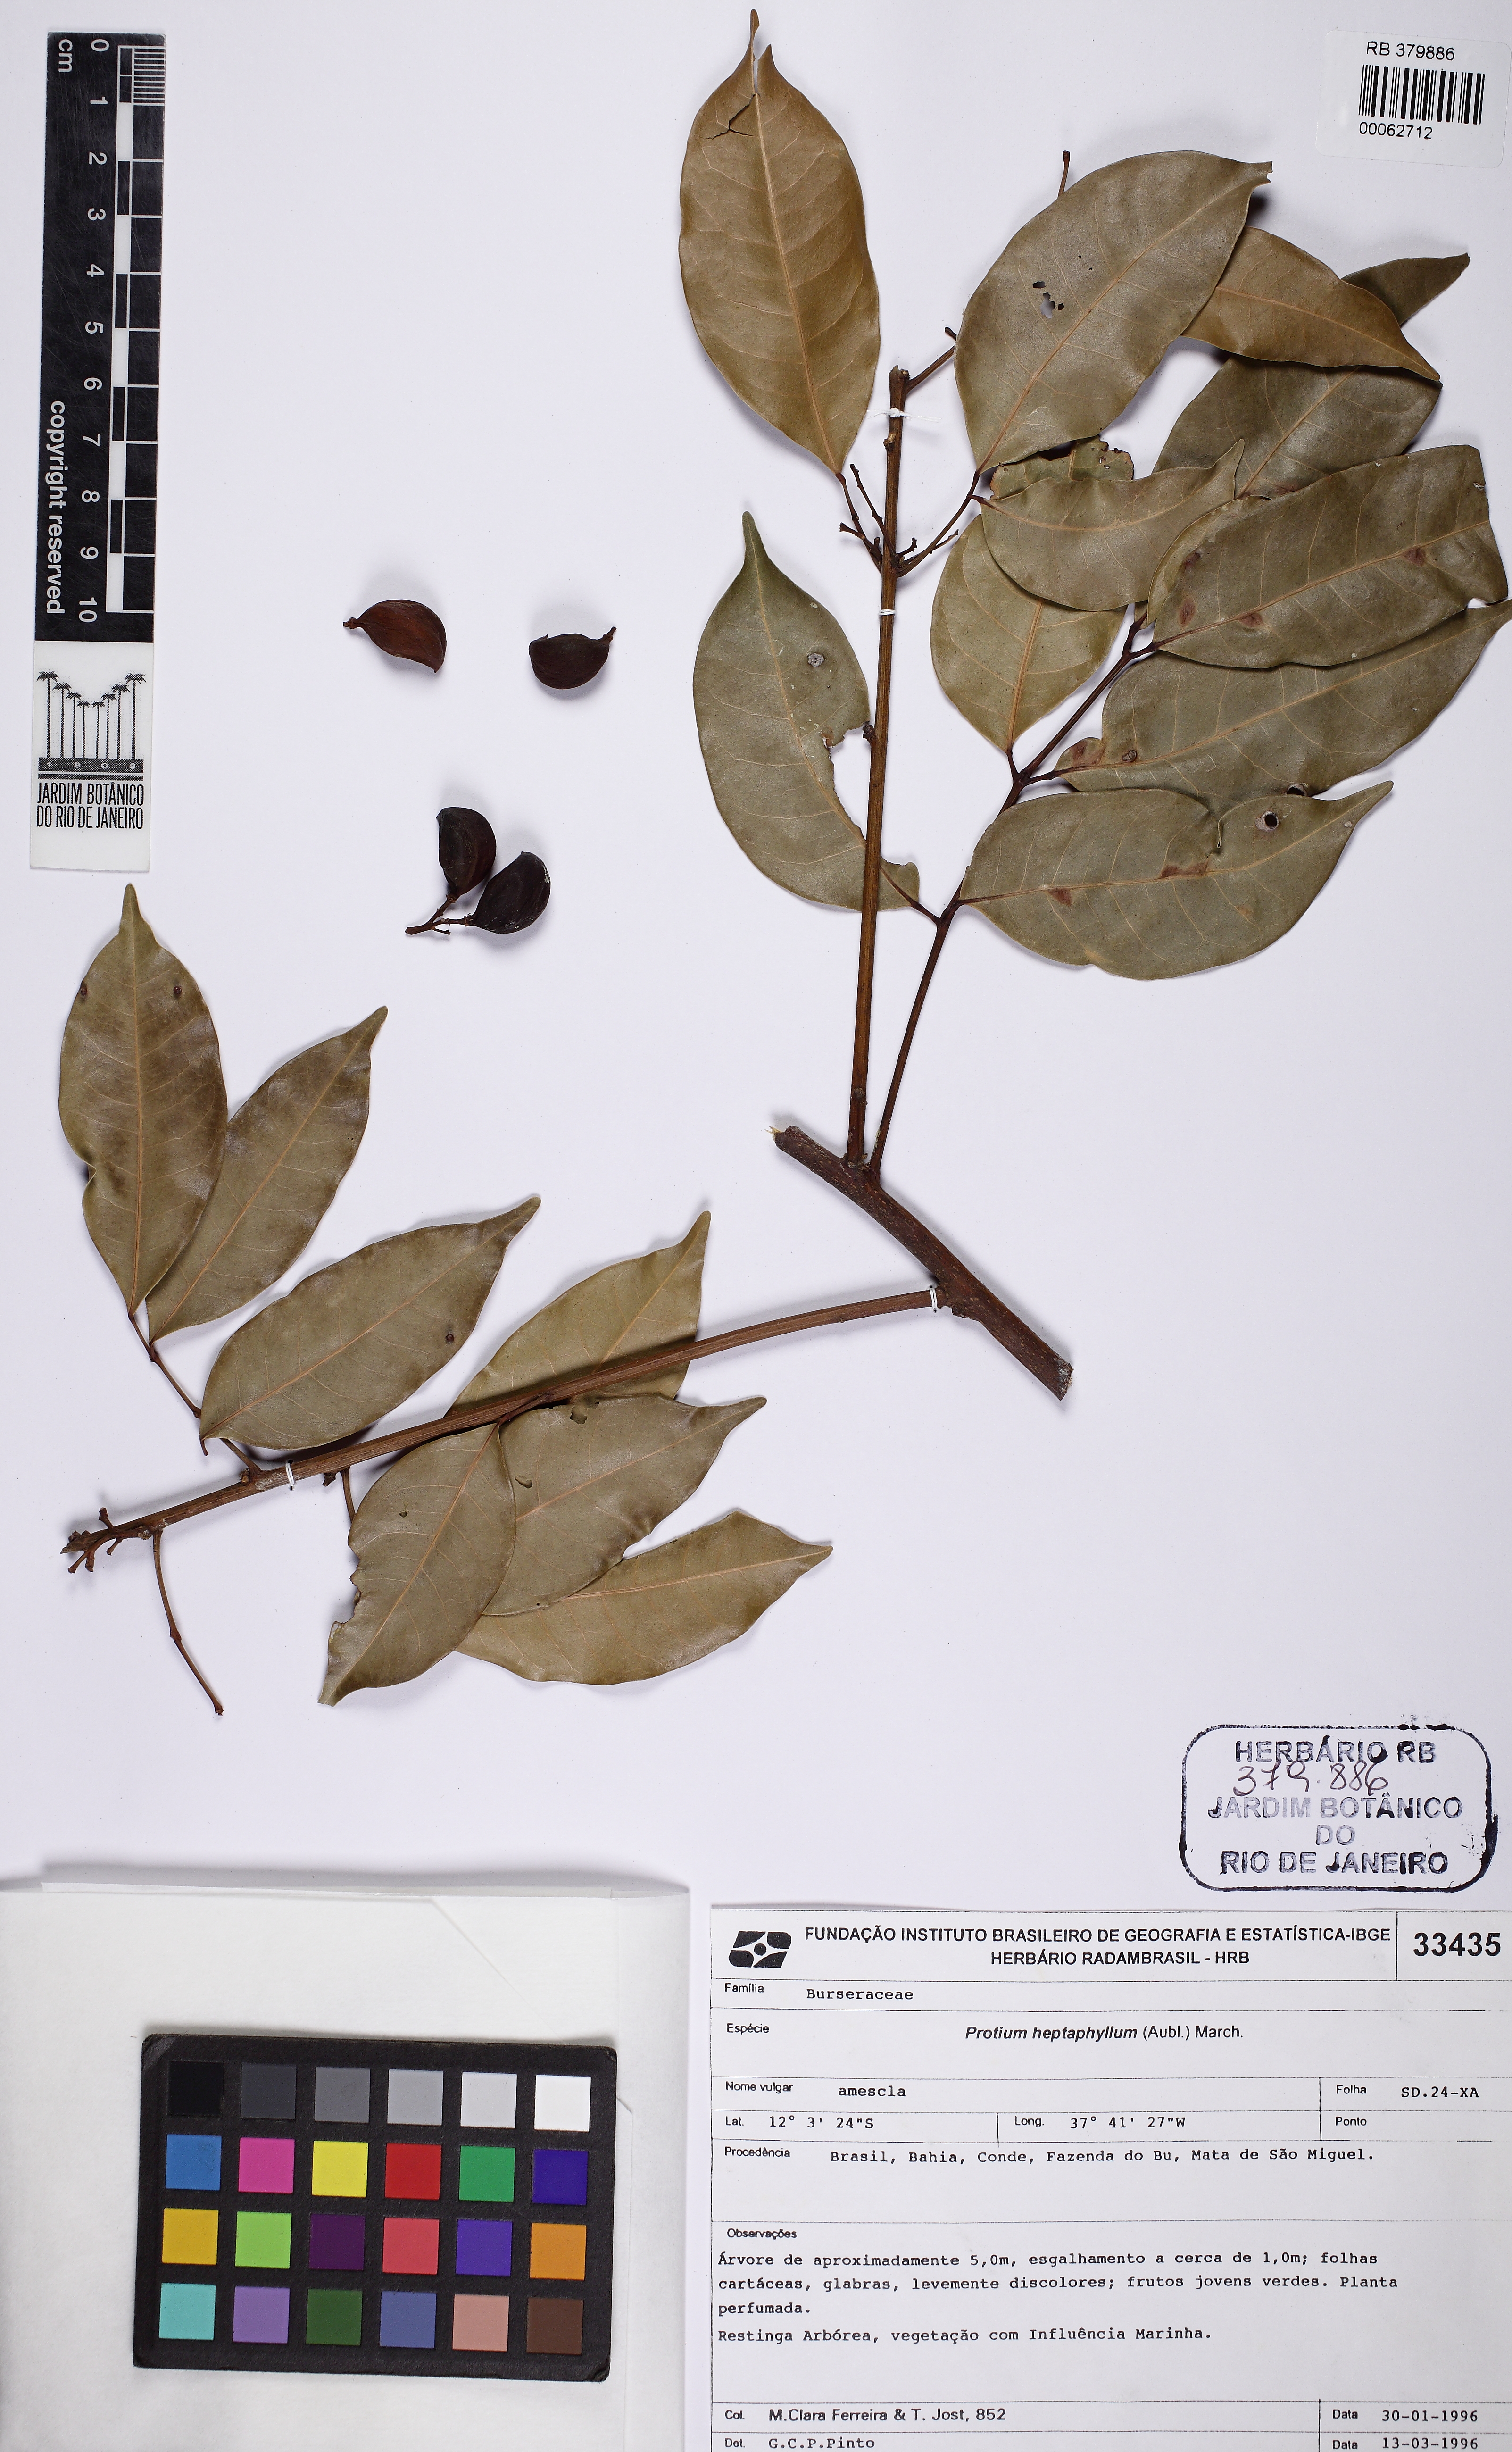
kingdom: Plantae
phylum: Tracheophyta
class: Magnoliopsida
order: Sapindales
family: Burseraceae
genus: Protium
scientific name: Protium heptaphyllum
